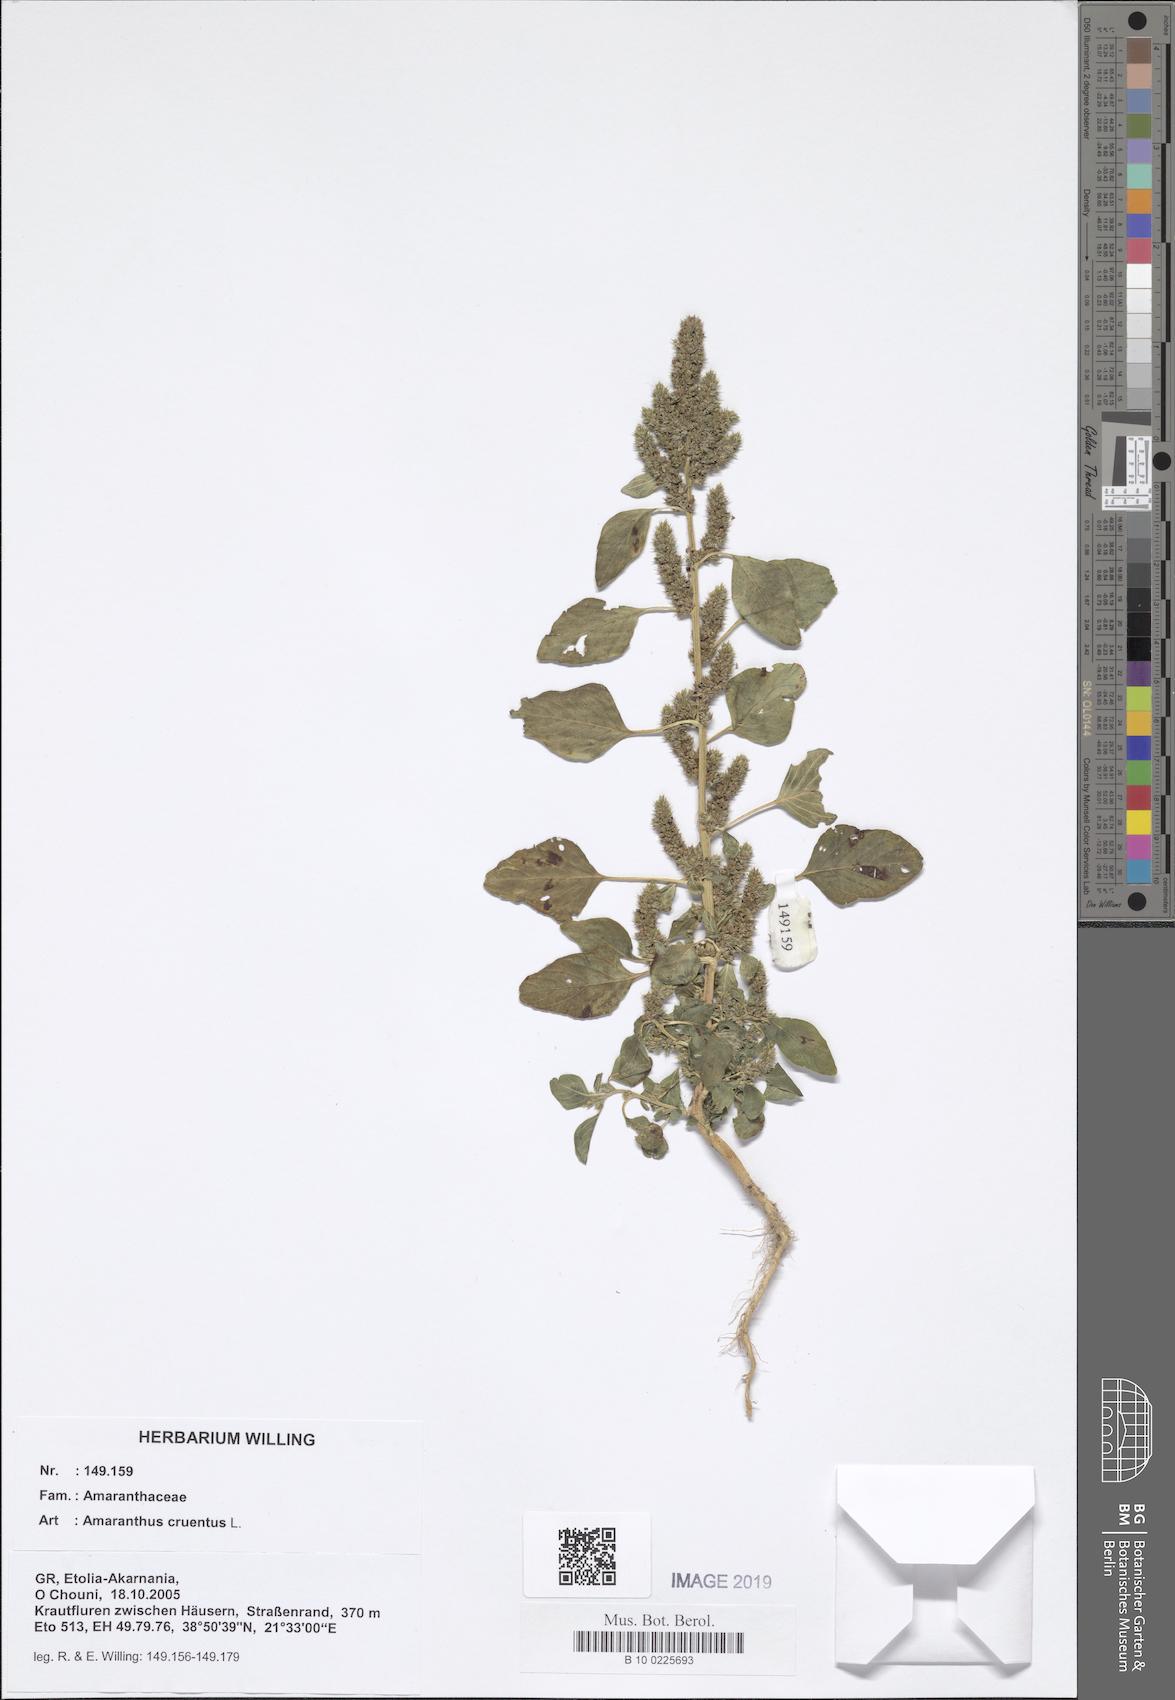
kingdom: Plantae
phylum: Tracheophyta
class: Magnoliopsida
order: Caryophyllales
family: Amaranthaceae
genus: Amaranthus
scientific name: Amaranthus cruentus
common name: Purple amaranth
